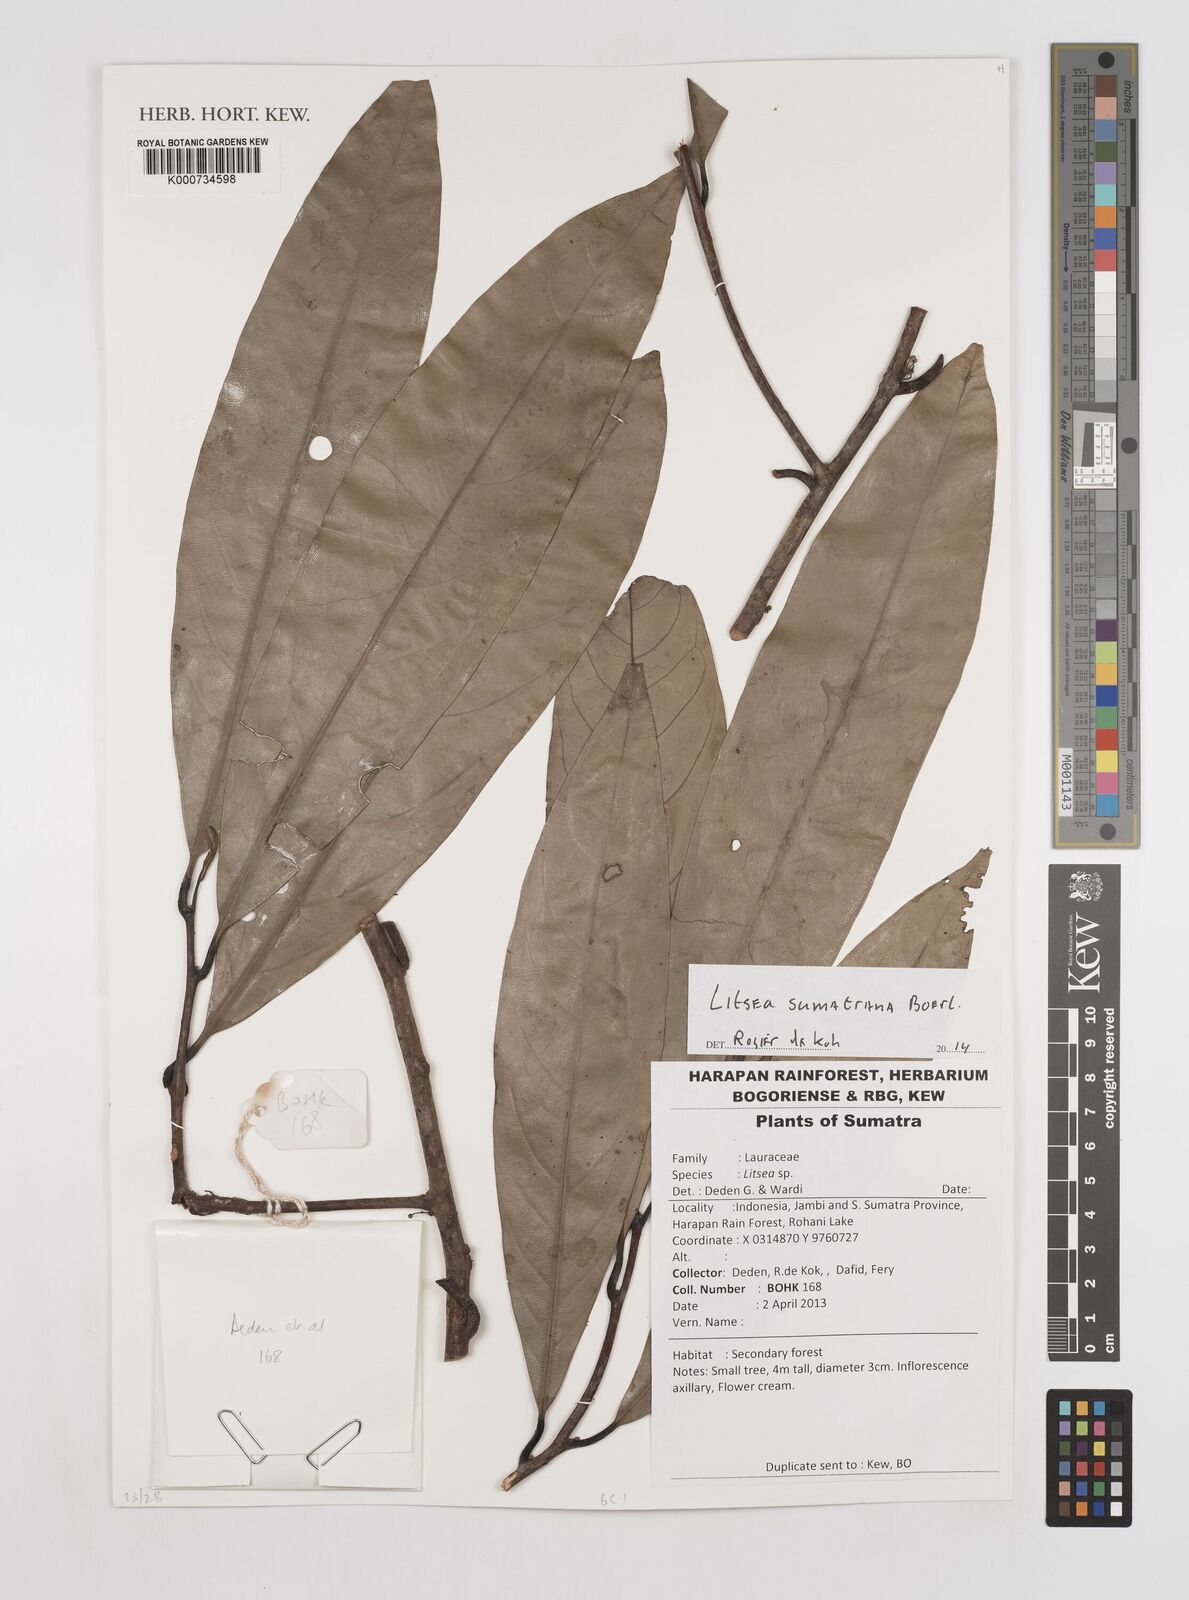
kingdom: Plantae
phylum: Tracheophyta
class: Magnoliopsida
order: Laurales
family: Lauraceae
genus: Litsea
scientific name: Litsea sumatrana
